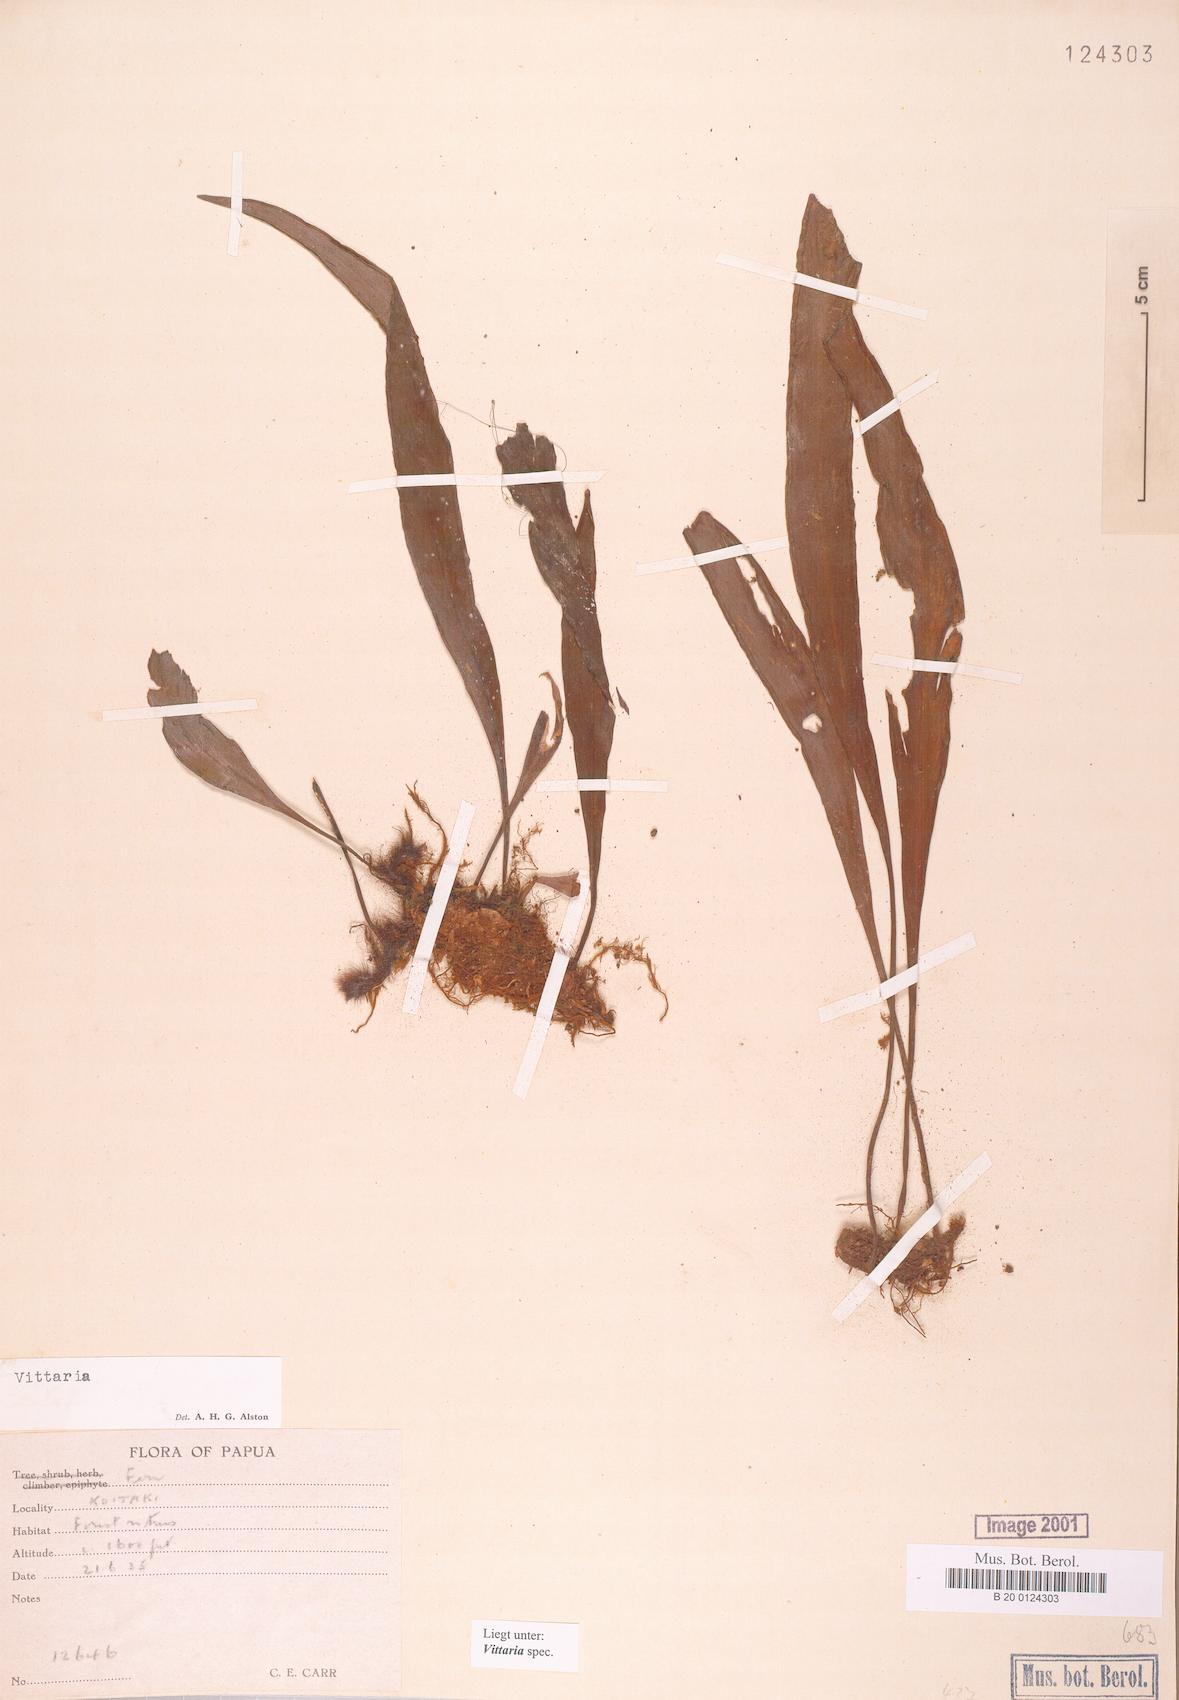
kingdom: Plantae
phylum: Tracheophyta
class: Polypodiopsida
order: Polypodiales
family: Pteridaceae
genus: Vittaria
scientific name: Vittaria
